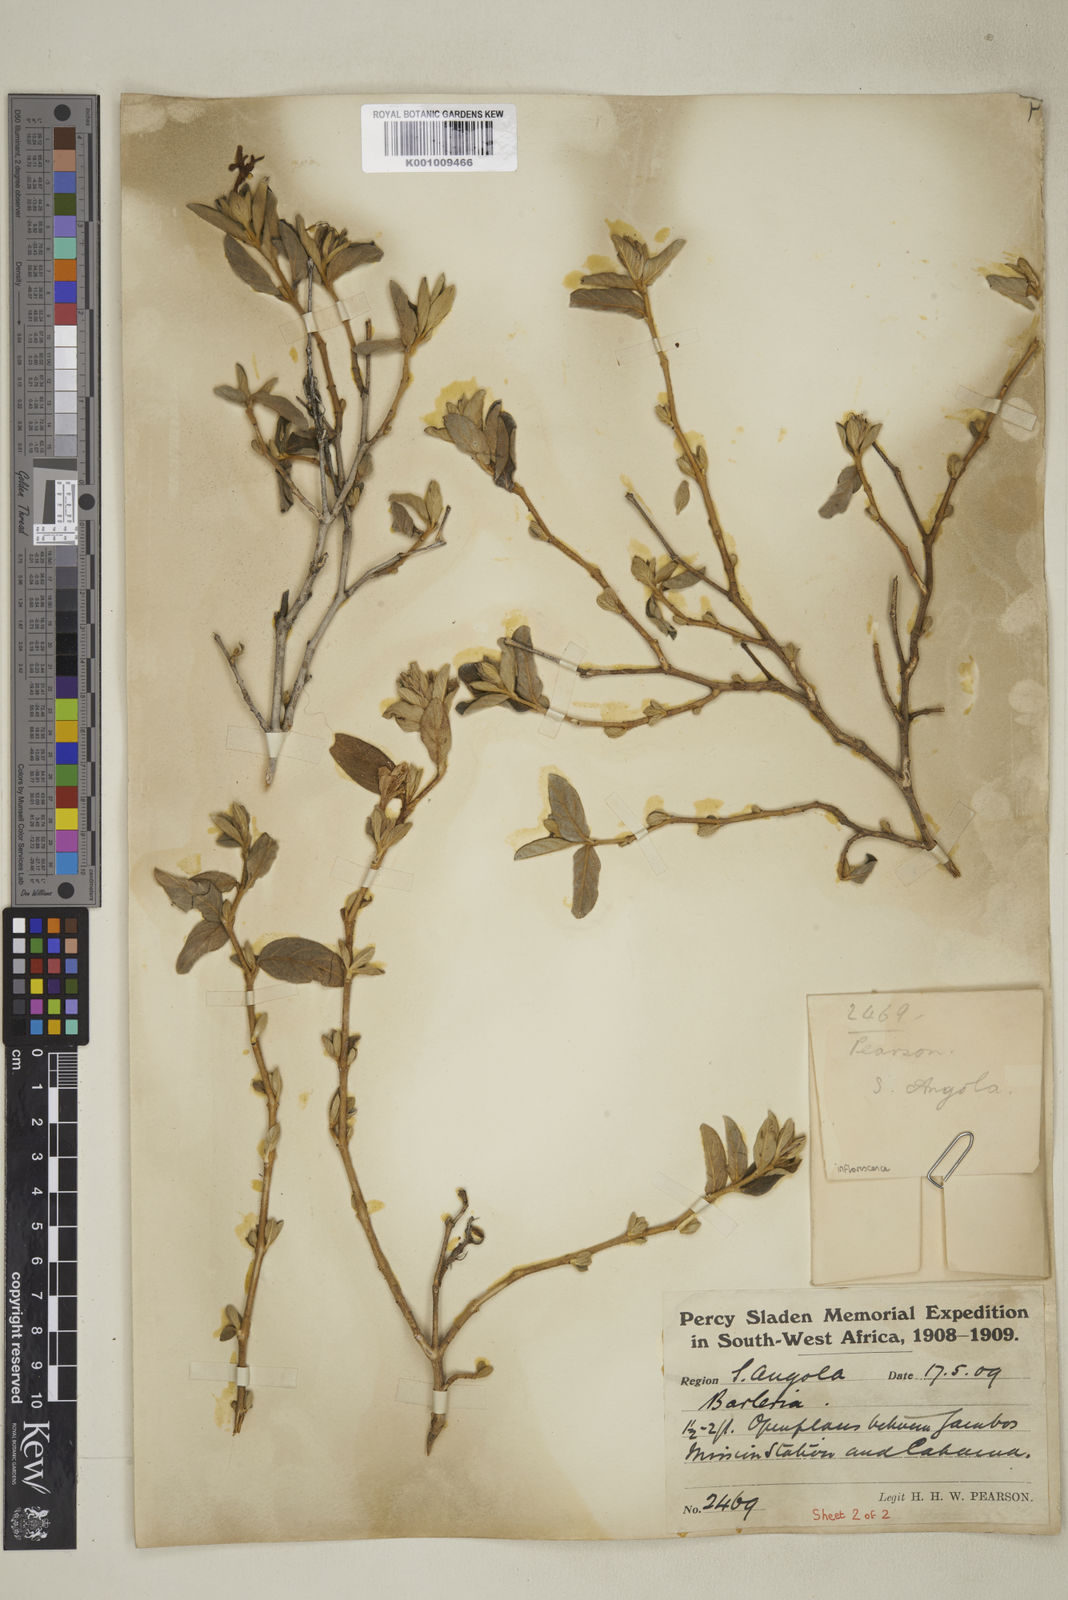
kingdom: Plantae
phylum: Tracheophyta
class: Magnoliopsida
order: Lamiales
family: Acanthaceae
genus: Barleria
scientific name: Barleria taitensis
